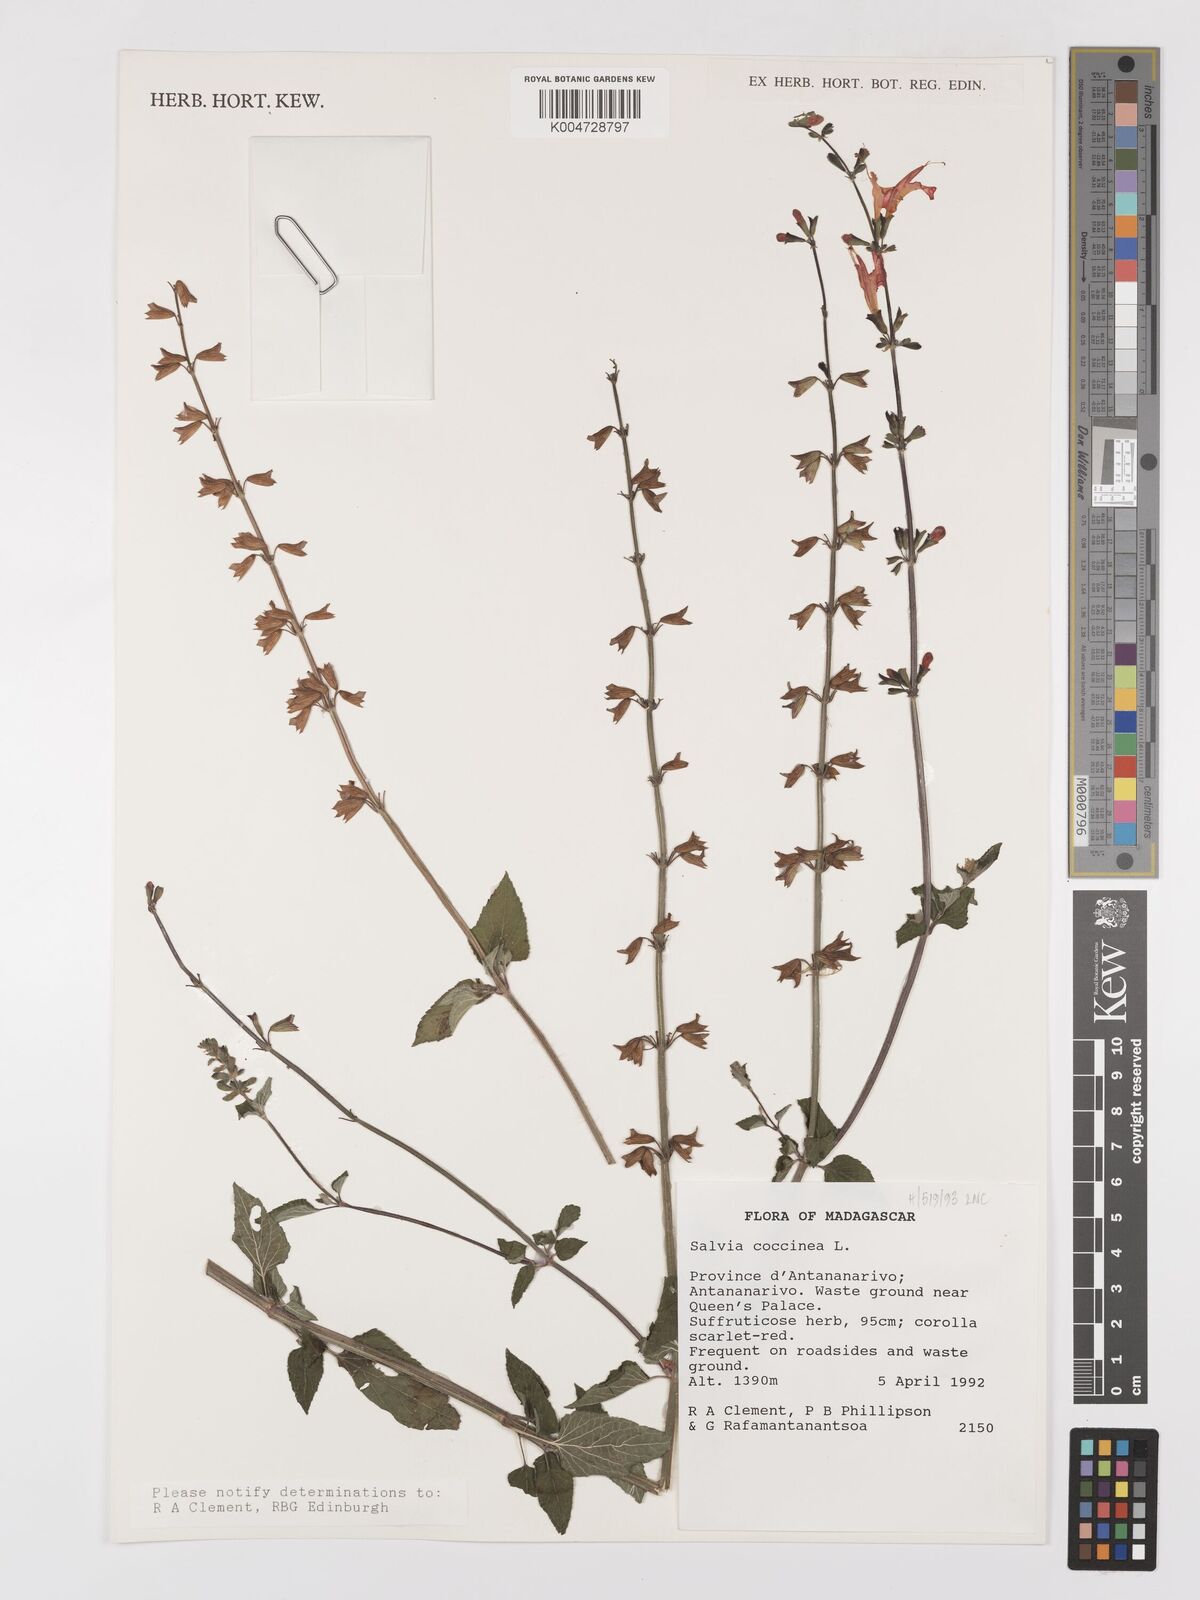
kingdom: Plantae
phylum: Tracheophyta
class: Magnoliopsida
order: Lamiales
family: Lamiaceae
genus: Salvia
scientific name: Salvia
